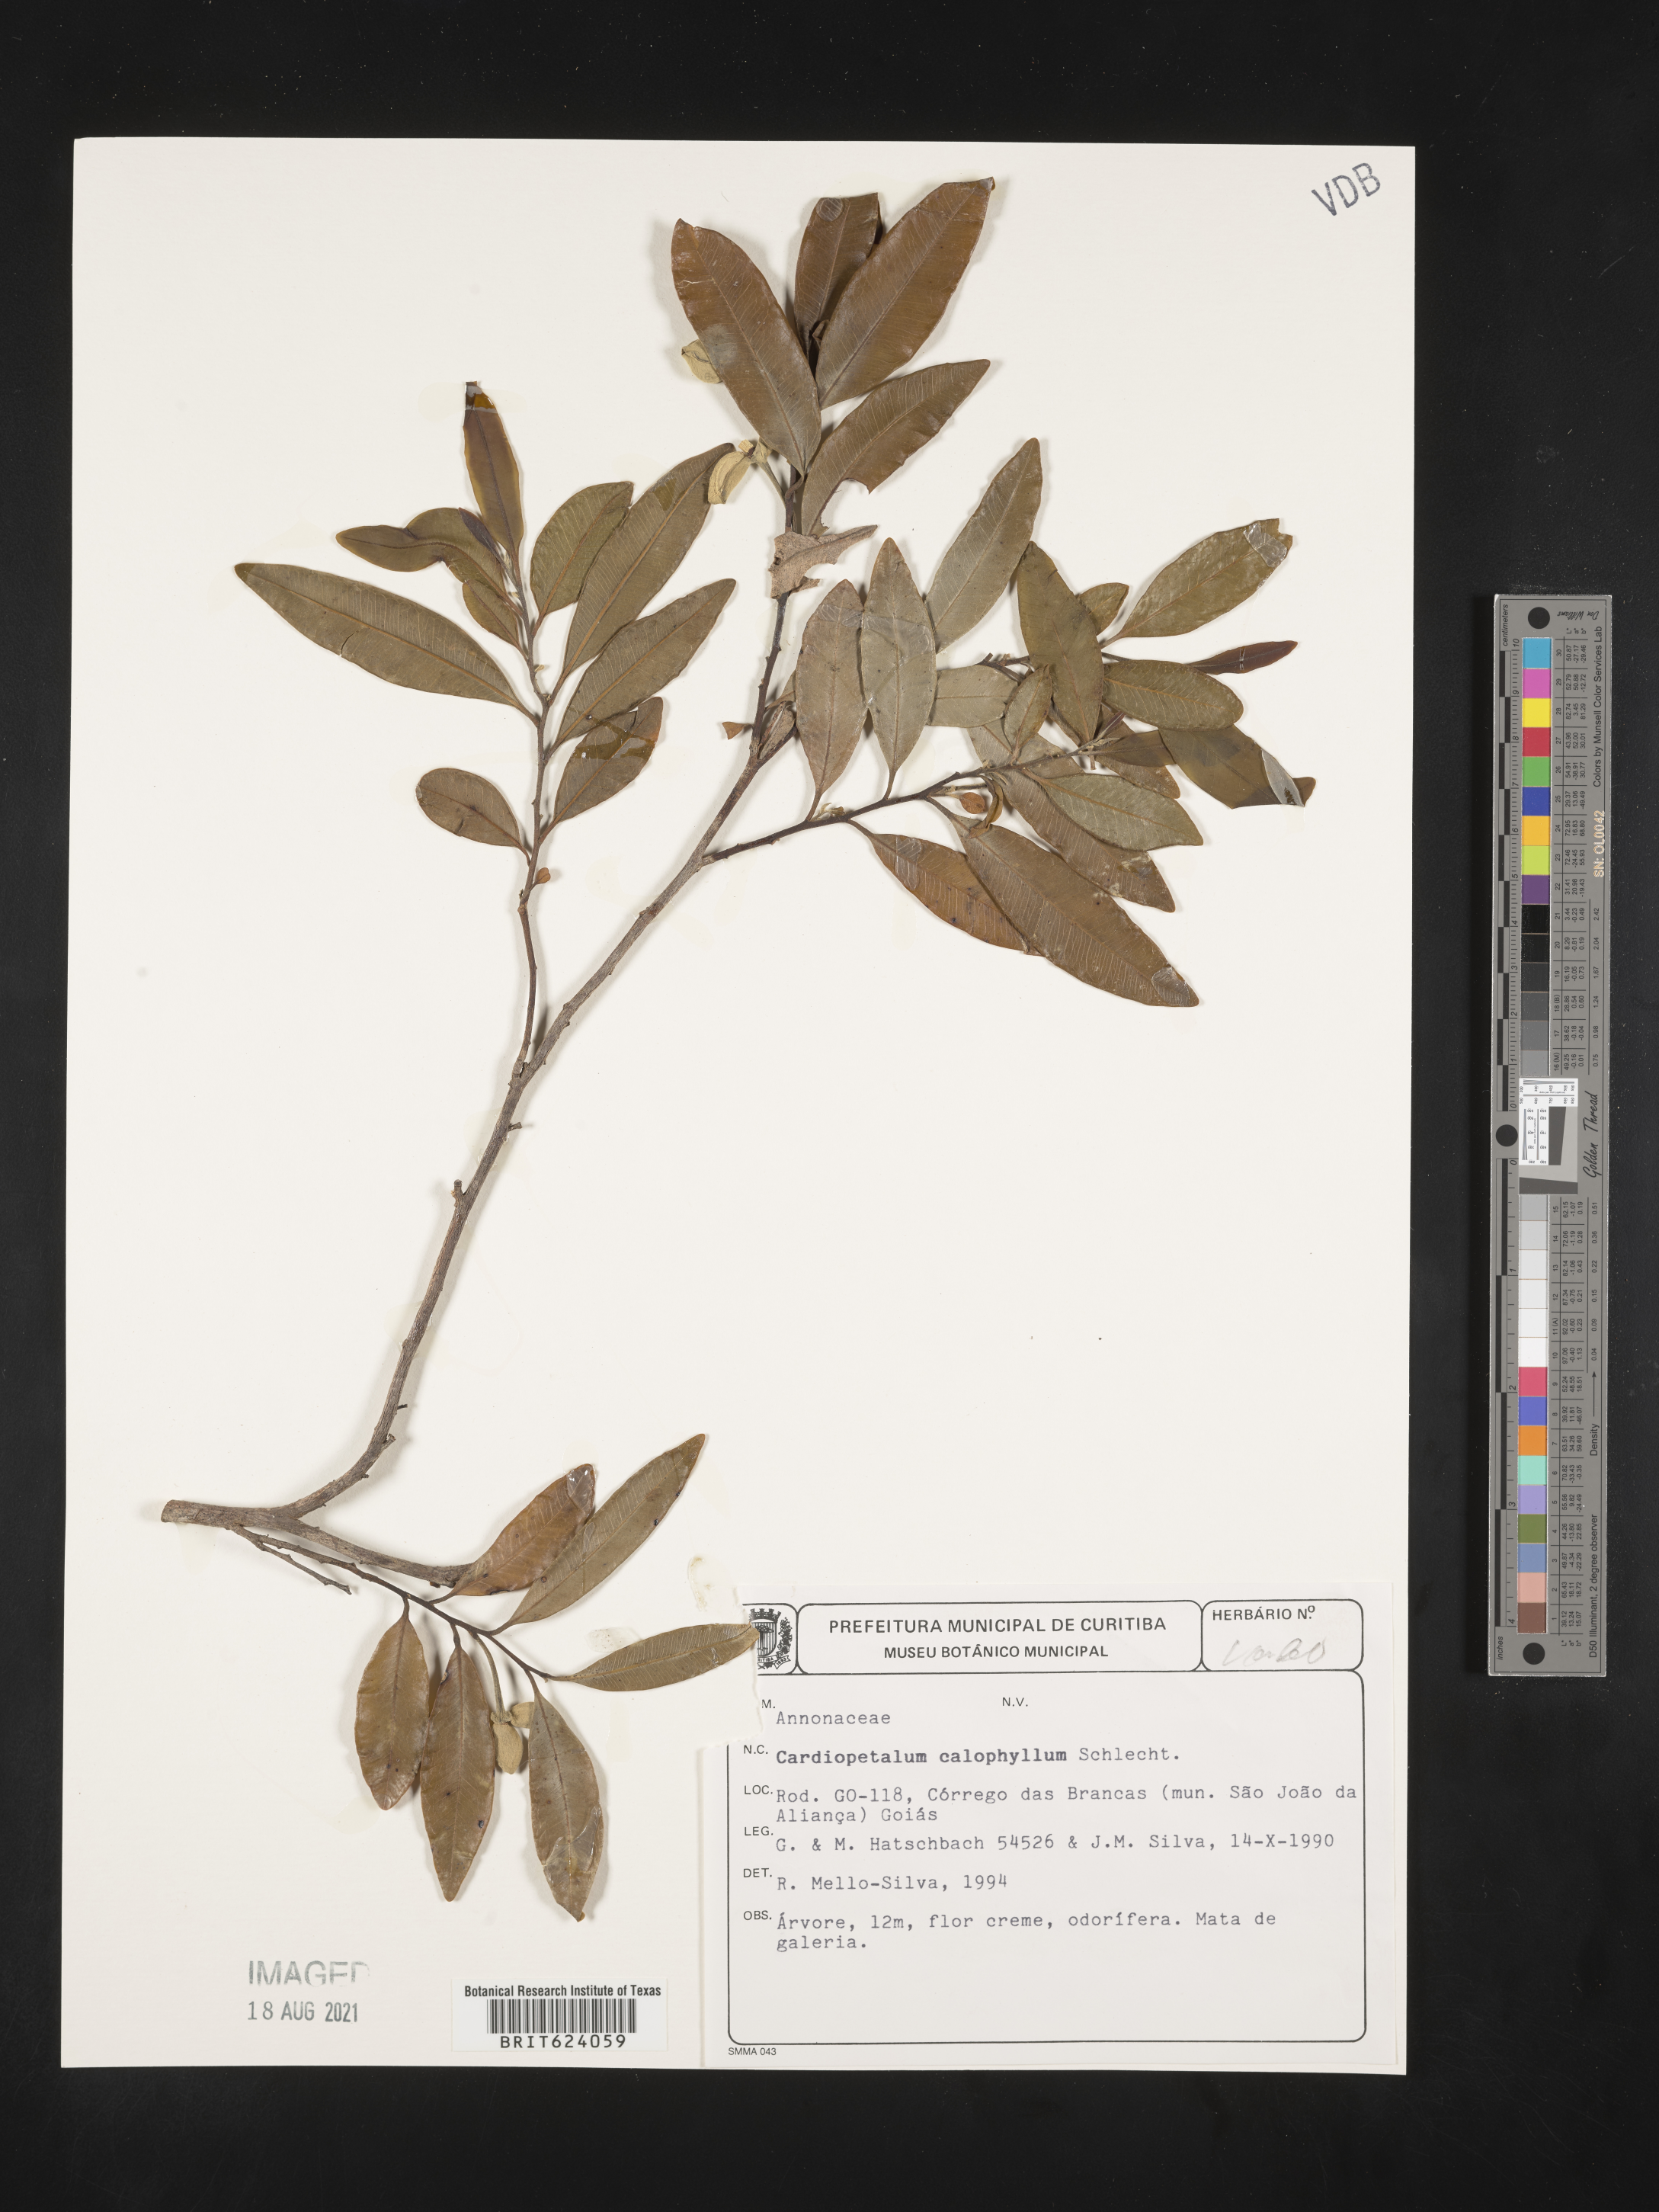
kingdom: Plantae
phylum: Tracheophyta
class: Magnoliopsida
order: Magnoliales
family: Annonaceae
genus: Cardiopetalum
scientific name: Cardiopetalum calophyllum
